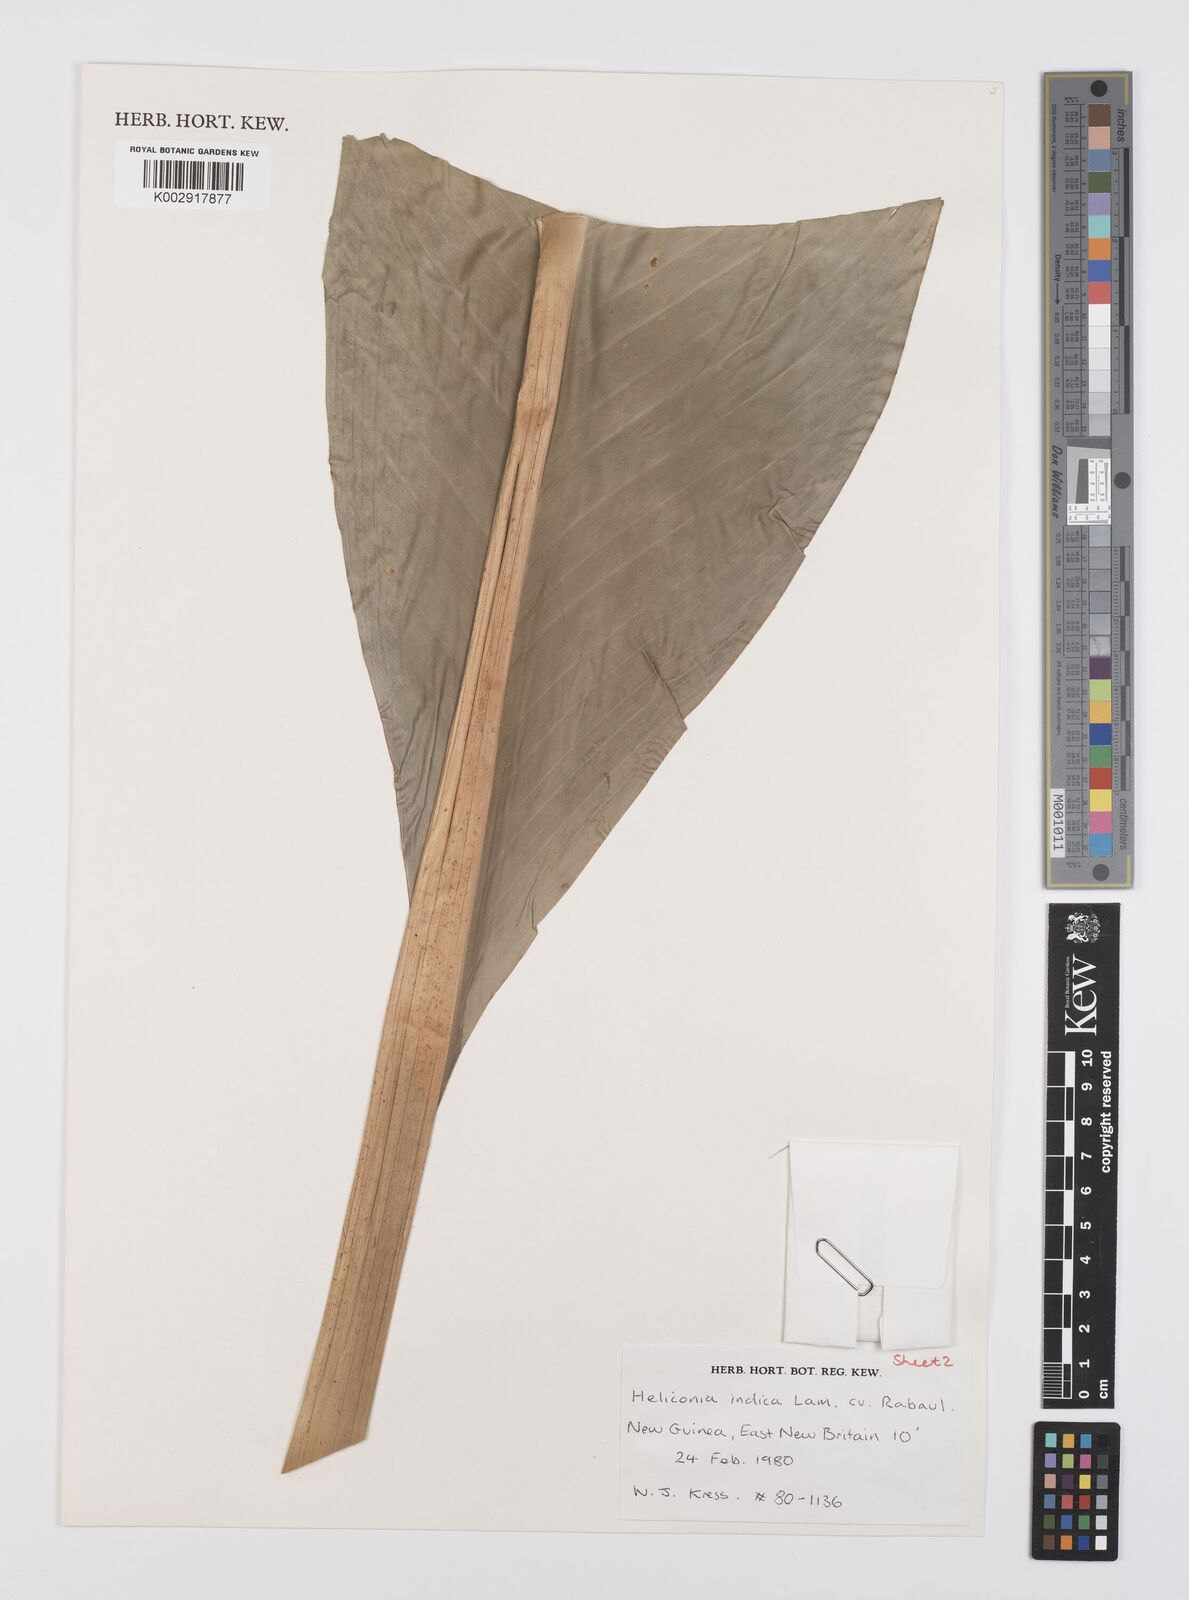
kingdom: Plantae
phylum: Tracheophyta
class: Liliopsida
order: Zingiberales
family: Heliconiaceae
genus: Heliconia
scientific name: Heliconia indica
